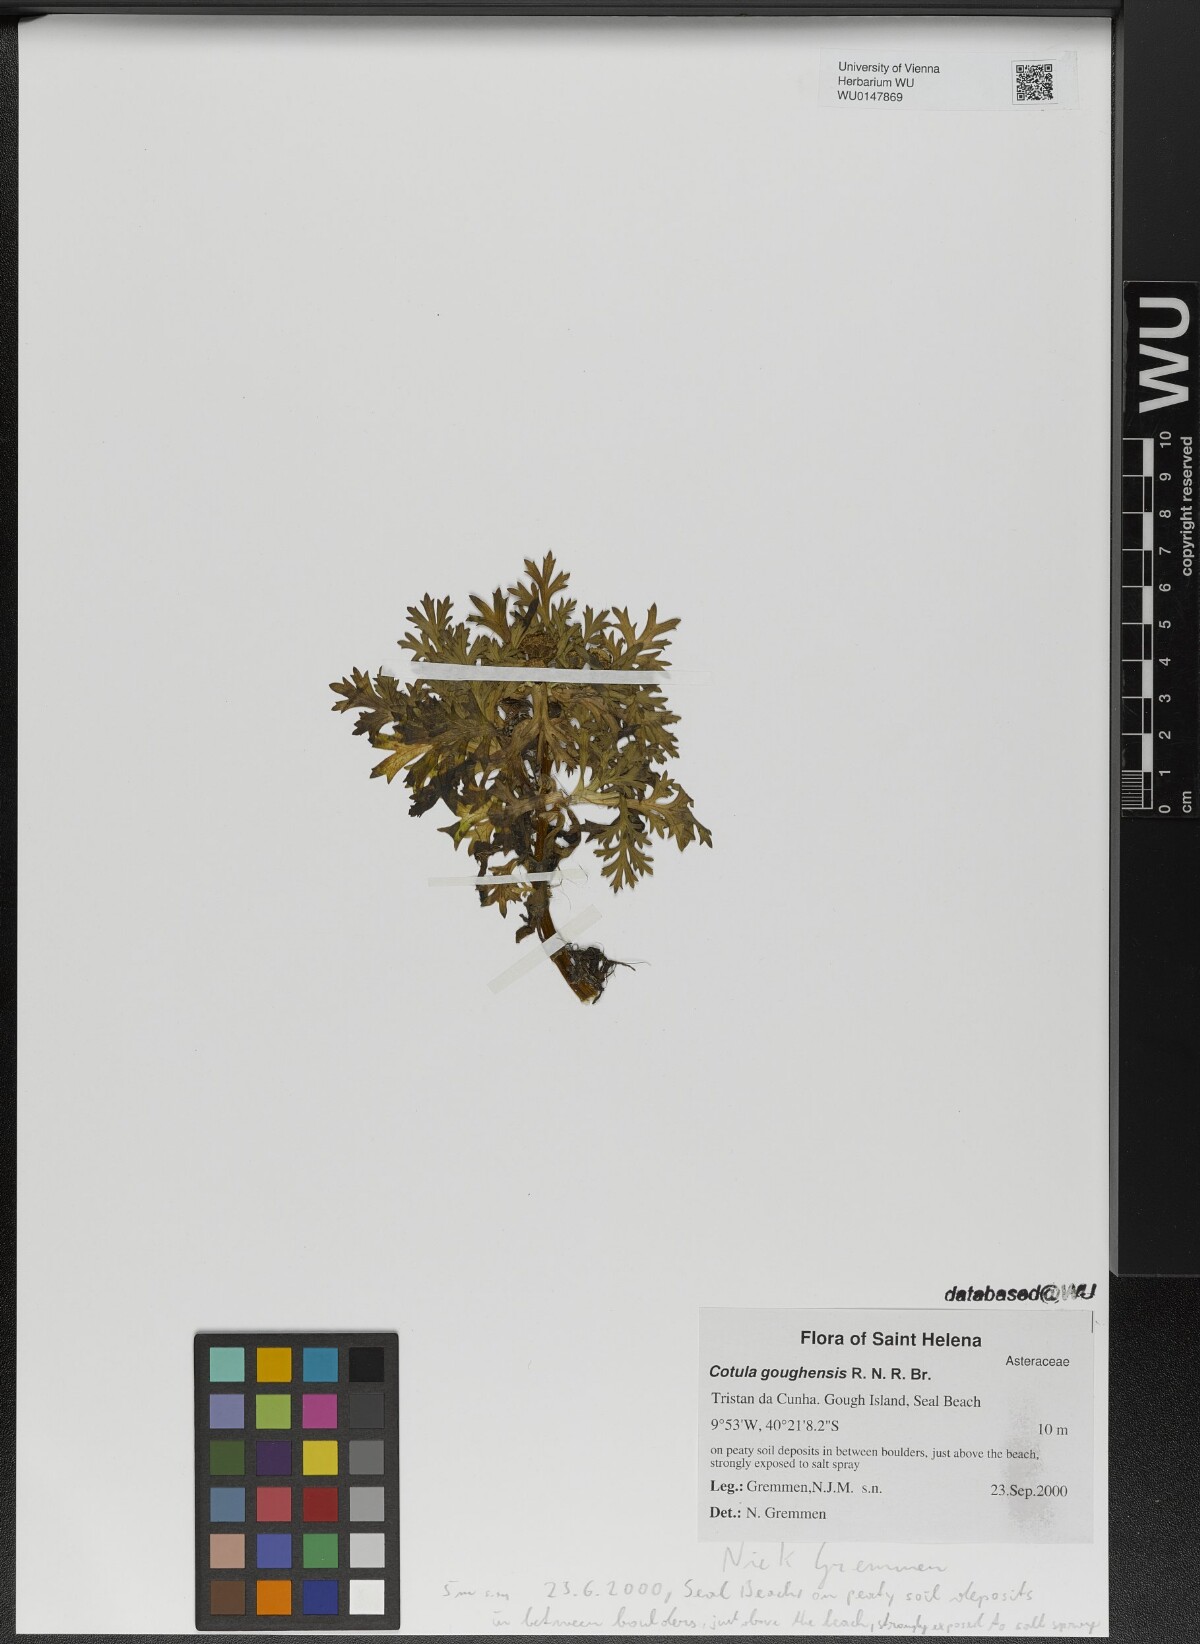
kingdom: Plantae
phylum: Tracheophyta
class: Magnoliopsida
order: Asterales
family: Asteraceae
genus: Cotula
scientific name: Cotula goughensis
